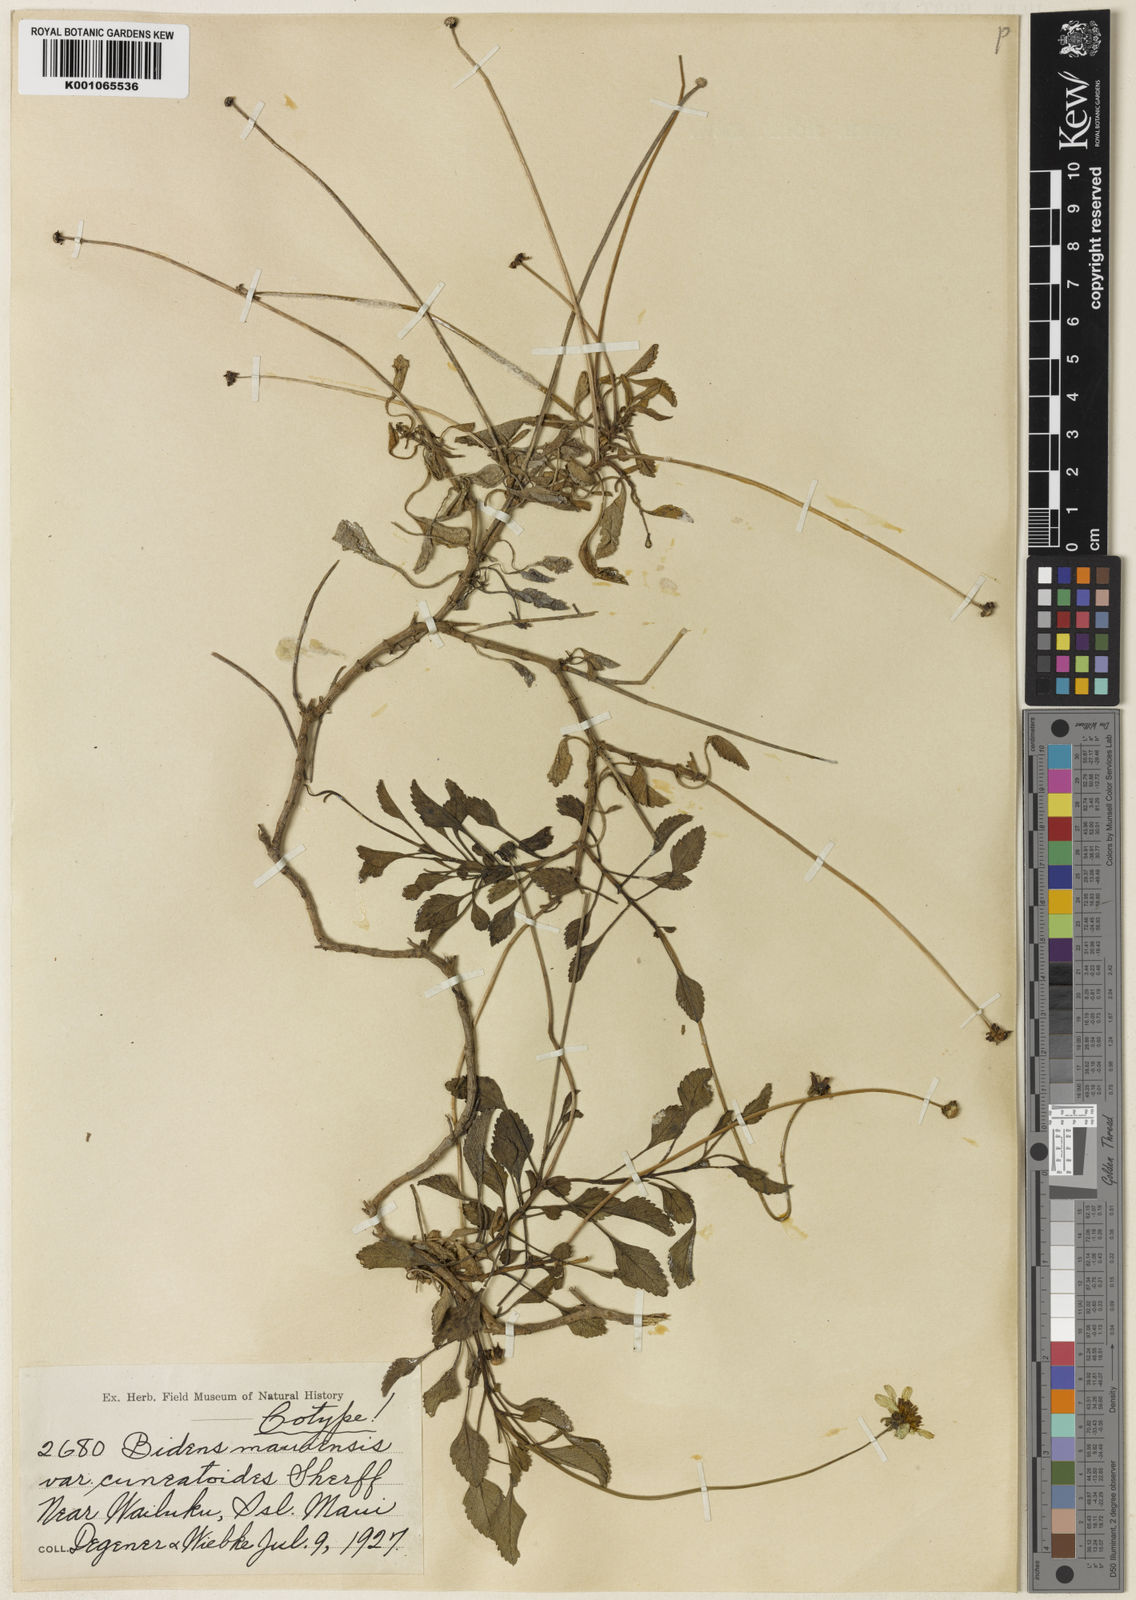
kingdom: Plantae
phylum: Tracheophyta
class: Magnoliopsida
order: Asterales
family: Asteraceae
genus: Bidens
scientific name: Bidens
